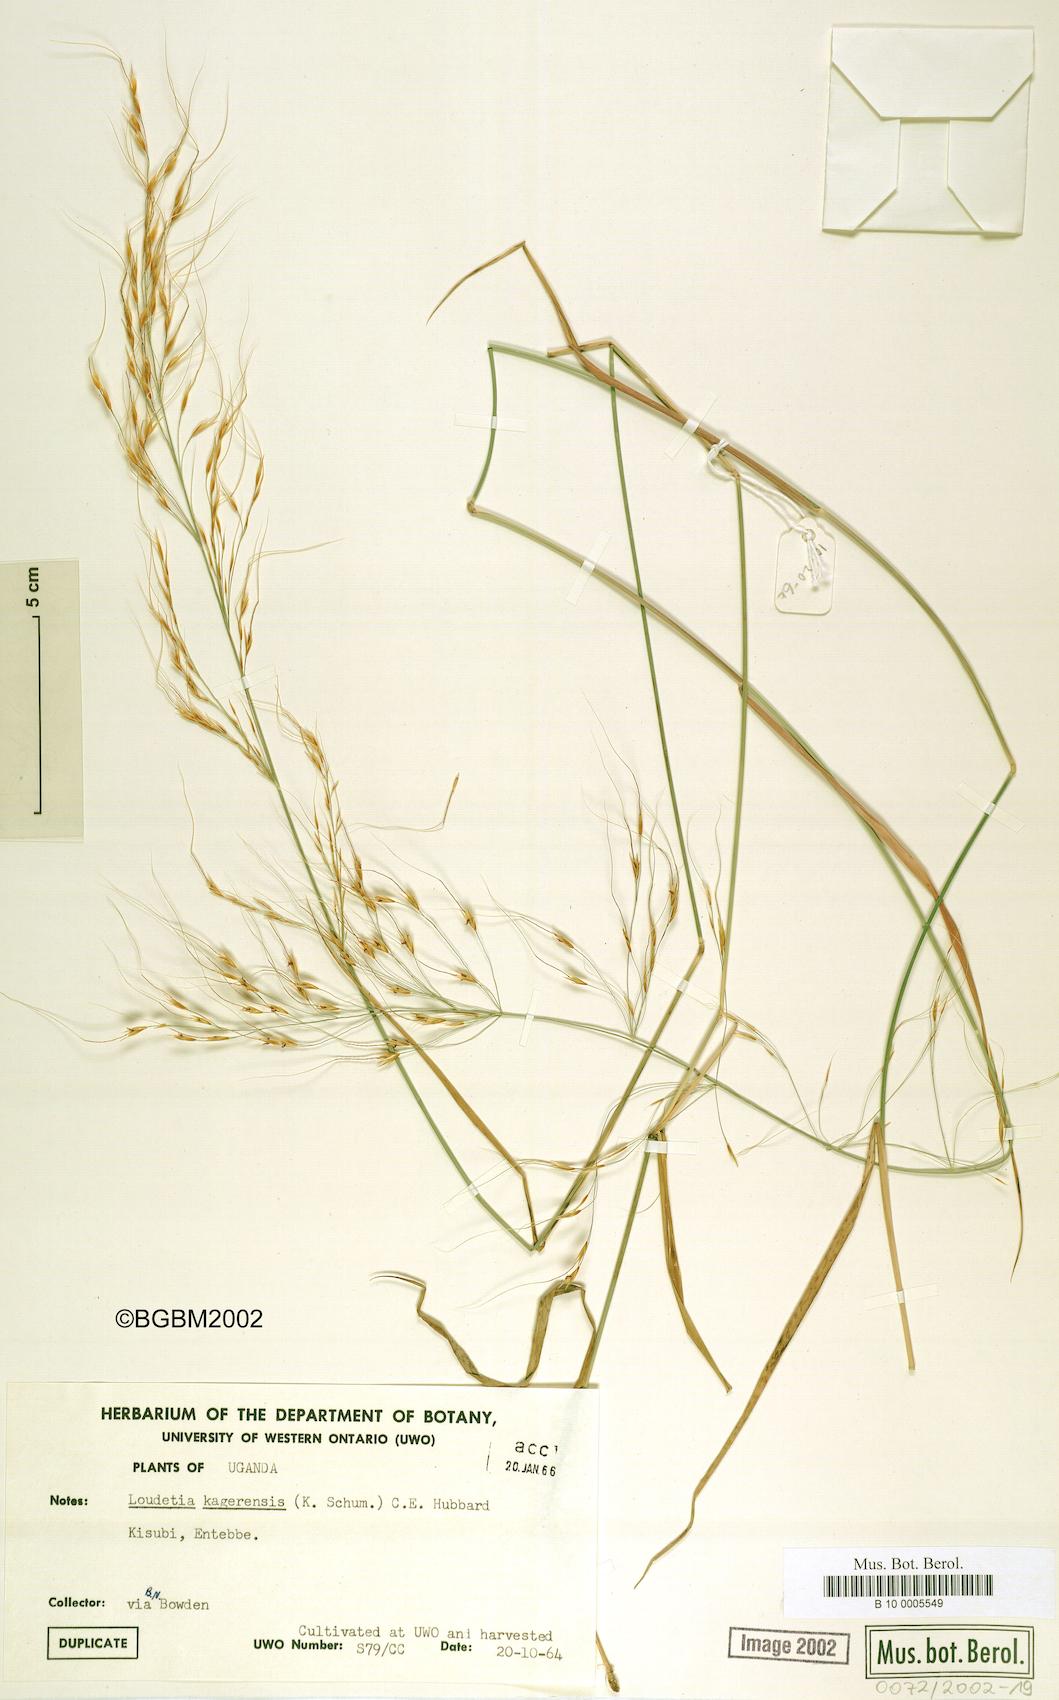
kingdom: Plantae
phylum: Tracheophyta
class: Liliopsida
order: Poales
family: Poaceae
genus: Loudetia
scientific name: Loudetia kagerensis
